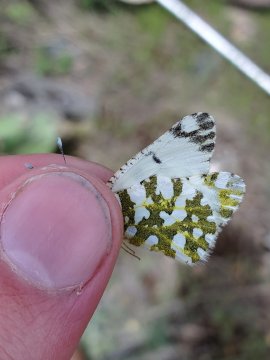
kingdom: Animalia
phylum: Arthropoda
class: Insecta
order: Lepidoptera
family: Pieridae
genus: Euchloe
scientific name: Euchloe ausonides
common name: Large Marble
